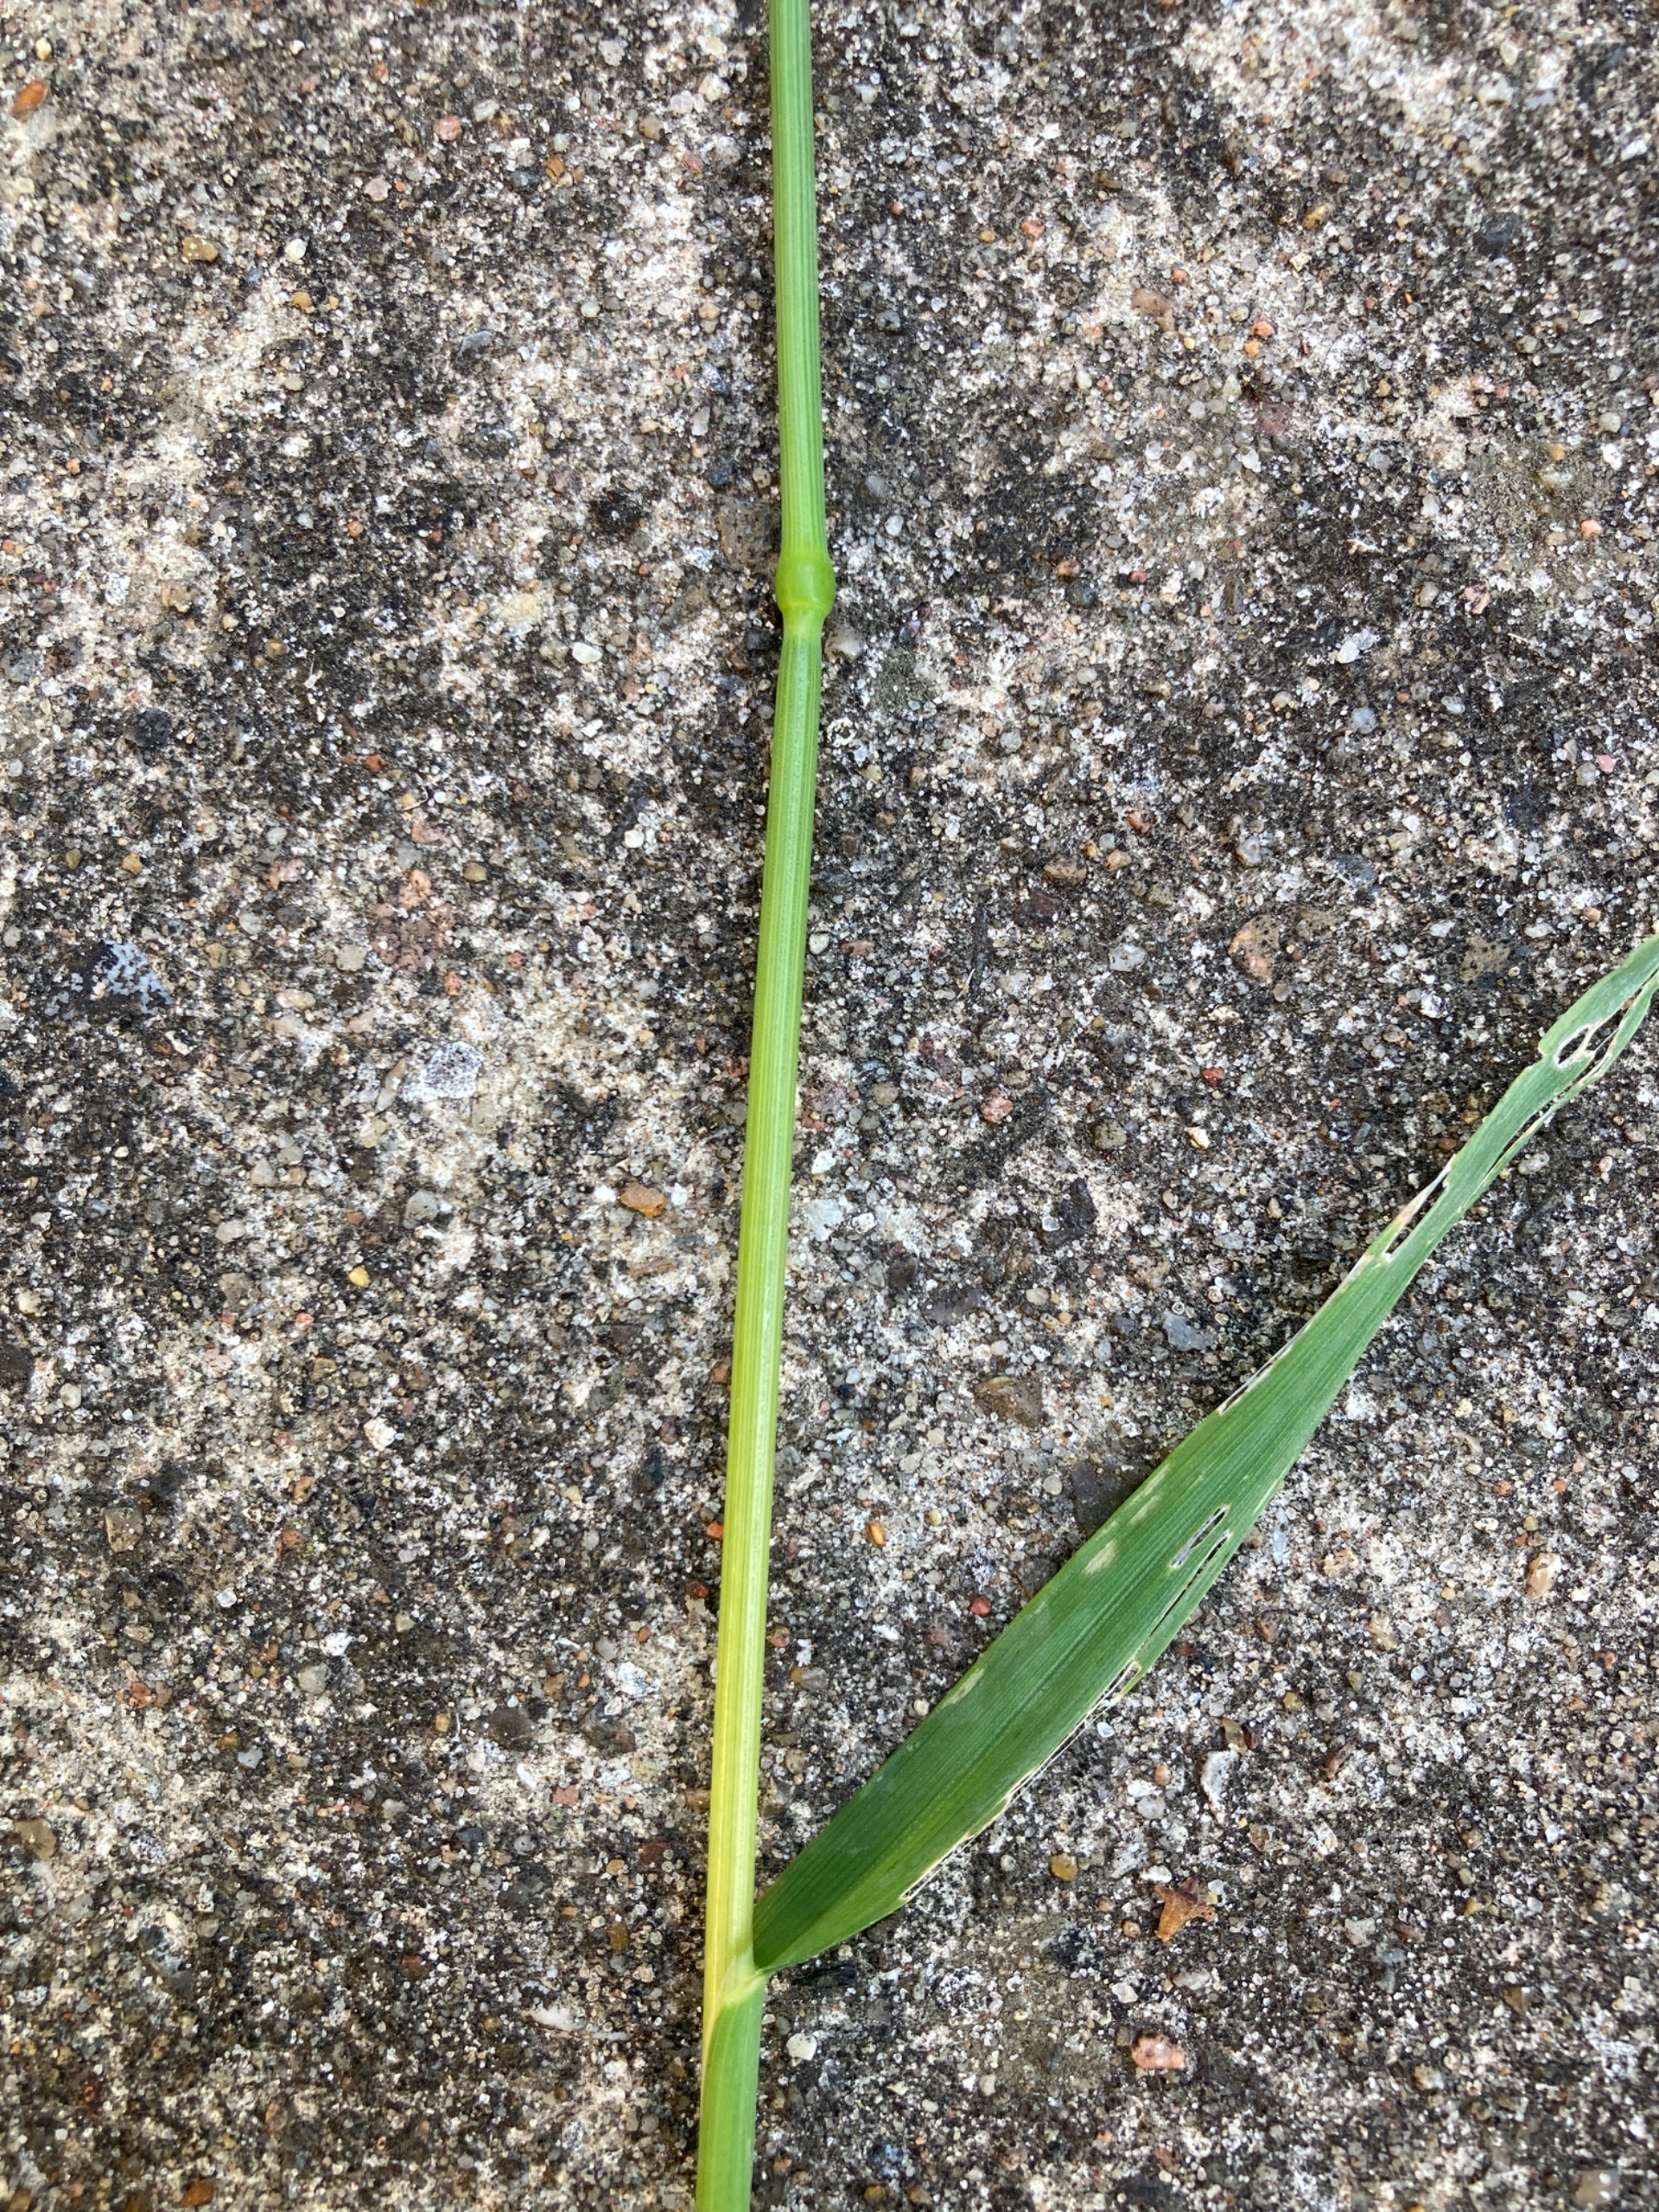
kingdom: Plantae
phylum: Tracheophyta
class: Liliopsida
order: Poales
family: Poaceae
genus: Avena
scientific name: Avena fatua
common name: Flyve-havre
